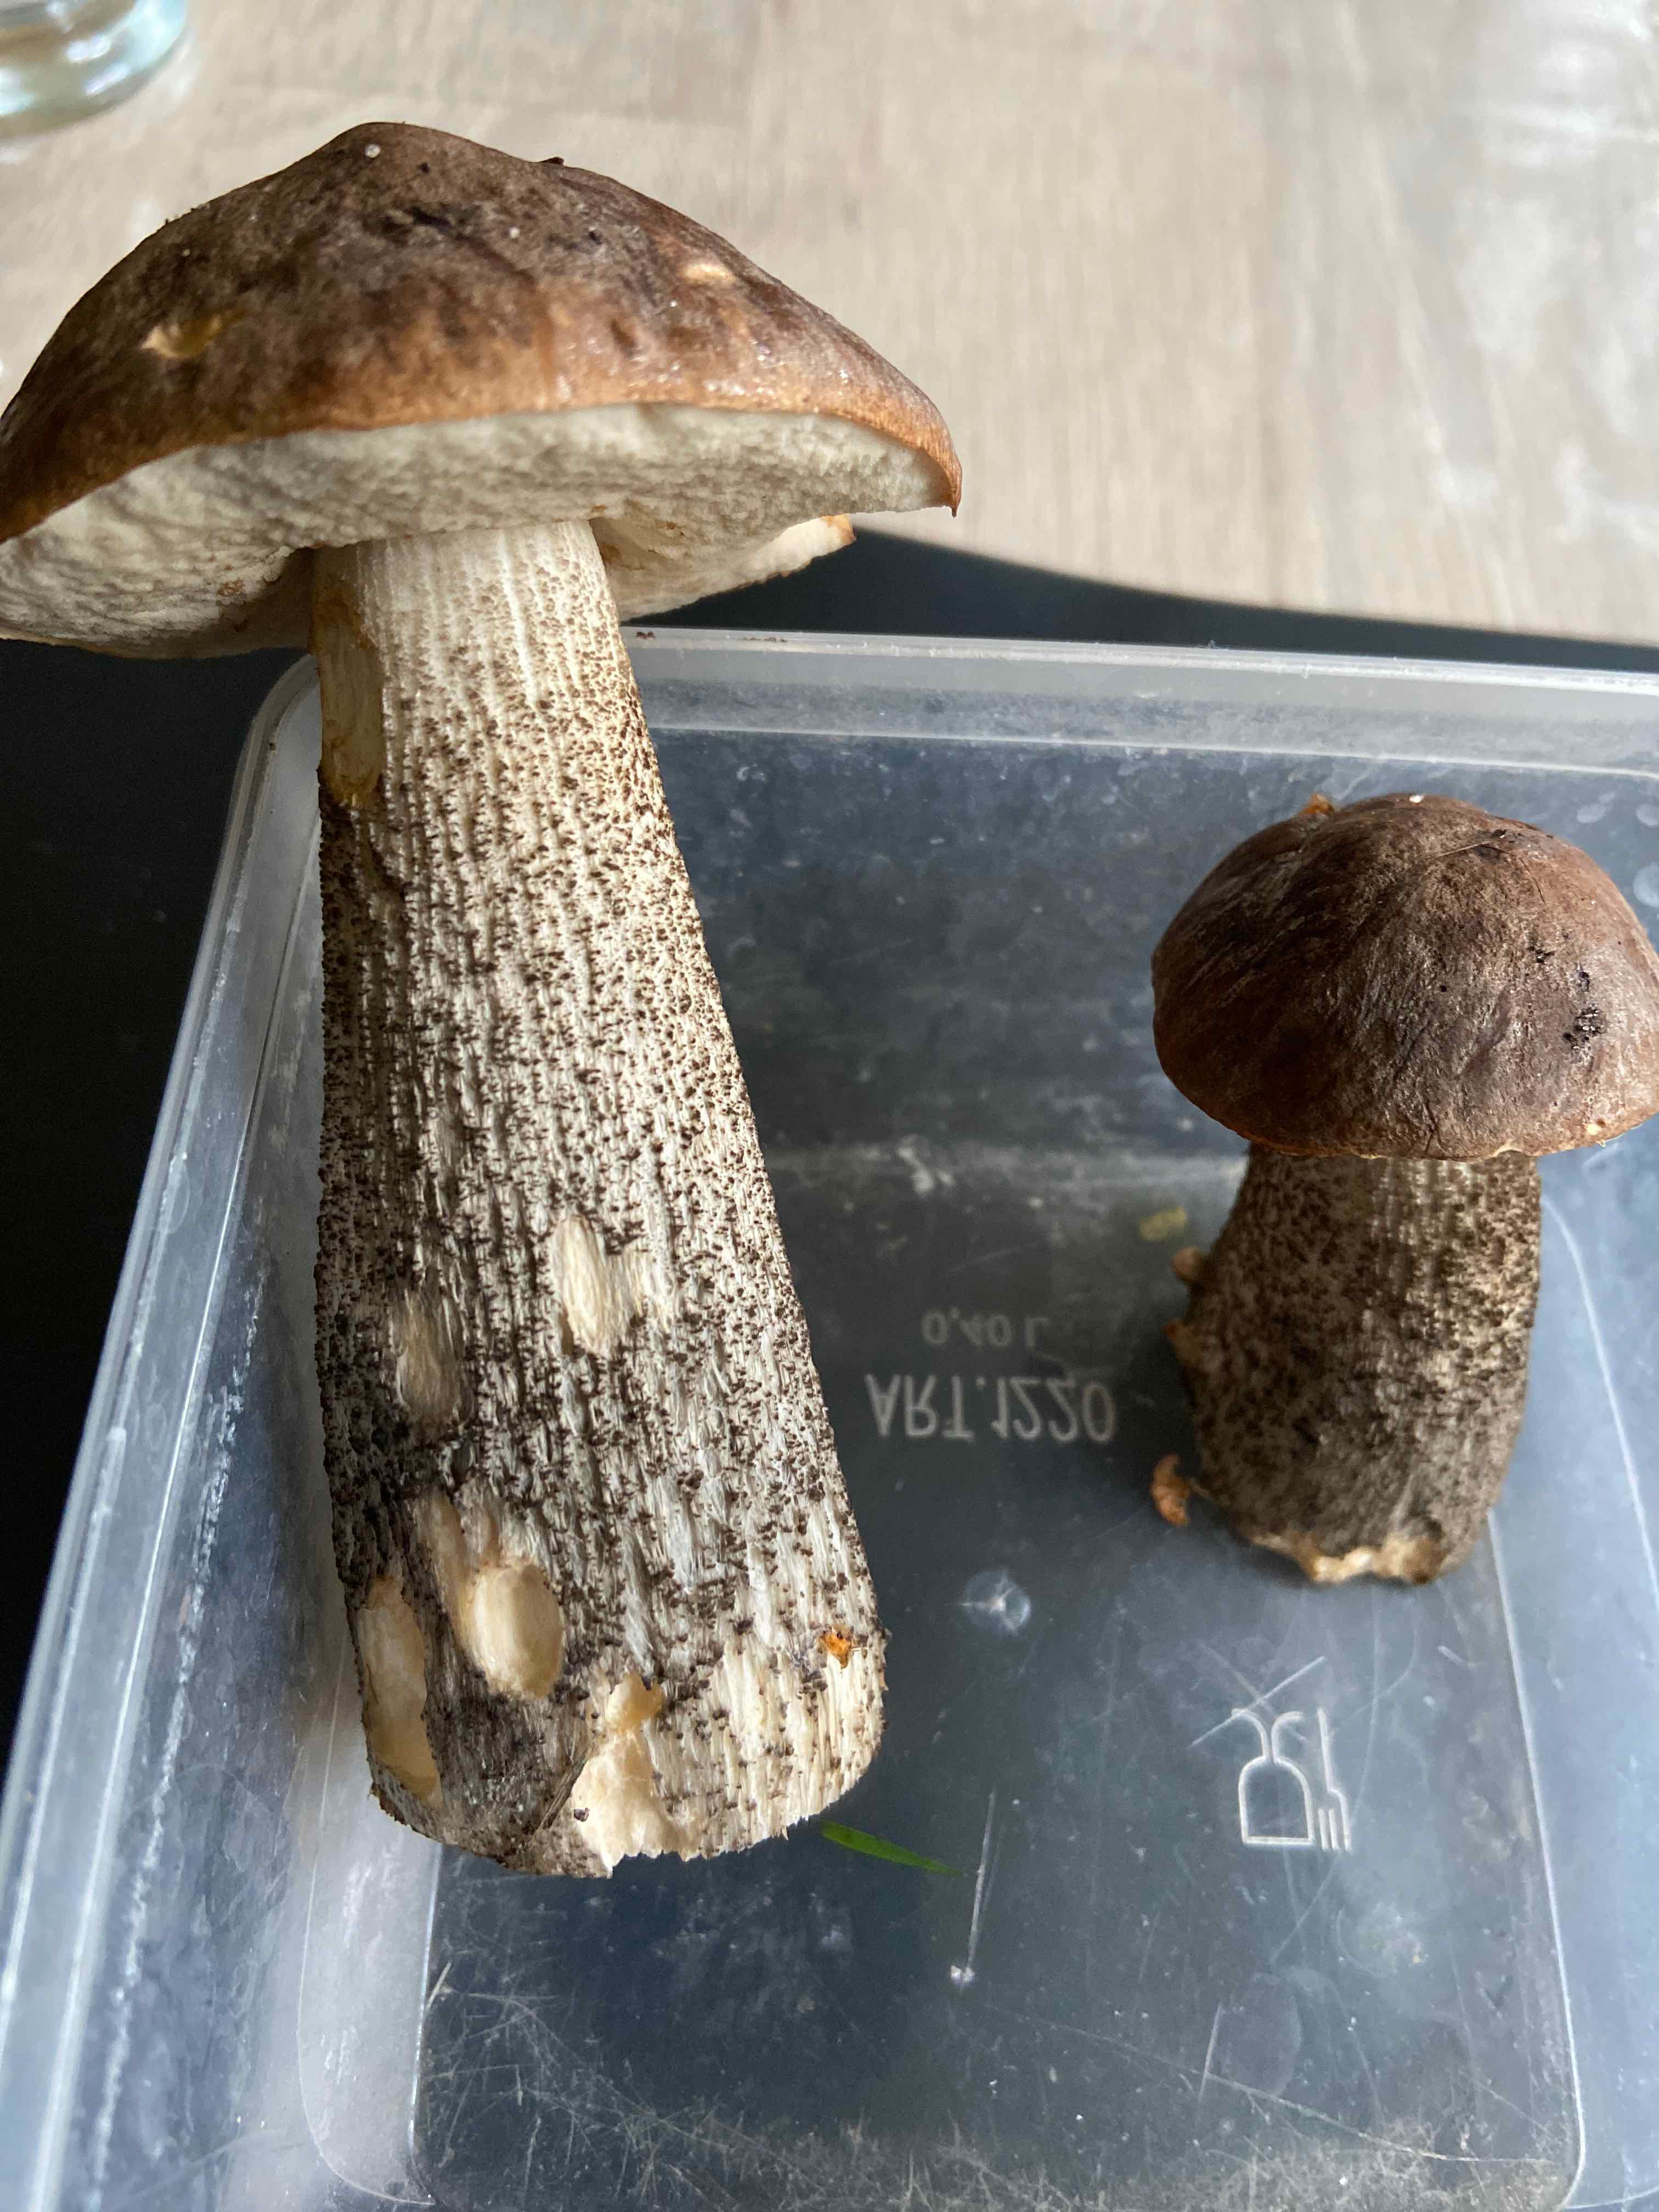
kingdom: Fungi
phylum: Basidiomycota
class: Agaricomycetes
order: Boletales
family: Boletaceae
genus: Leccinum
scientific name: Leccinum scabrum
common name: brun skælrørhat
